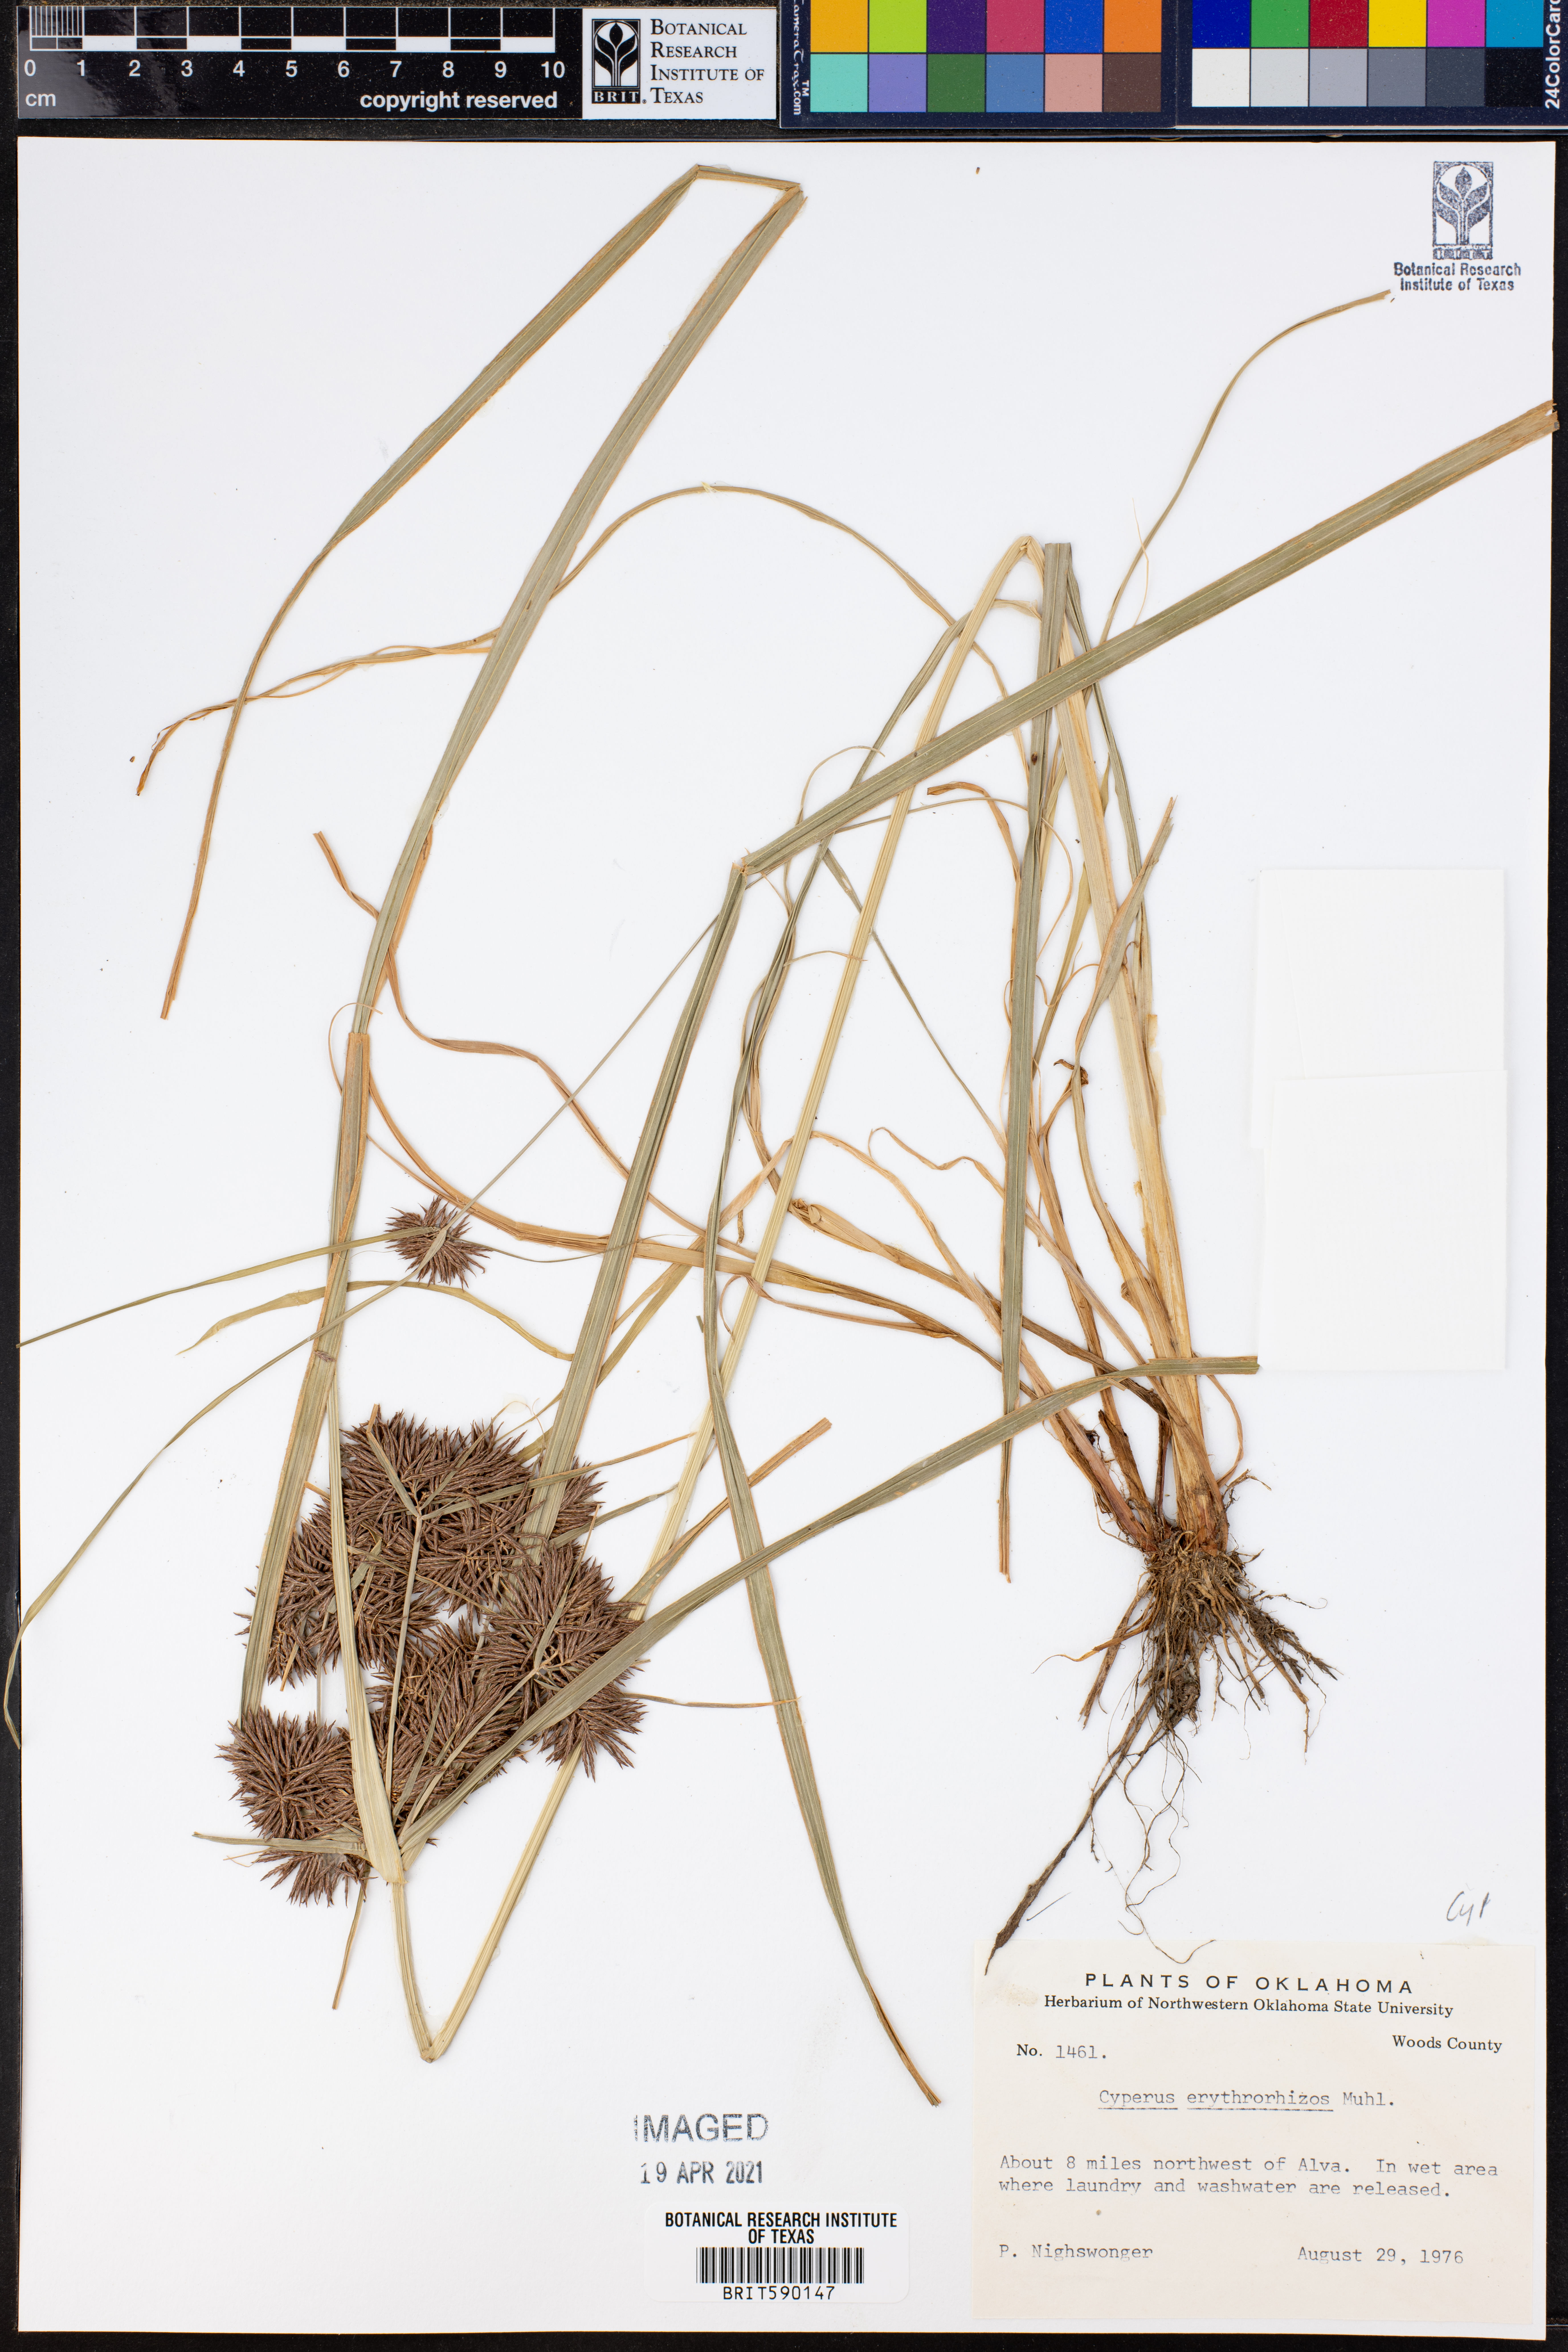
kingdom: Plantae
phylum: Tracheophyta
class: Liliopsida
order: Poales
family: Cyperaceae
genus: Cyperus
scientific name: Cyperus erythrorhizos
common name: Red-root flat sedge
